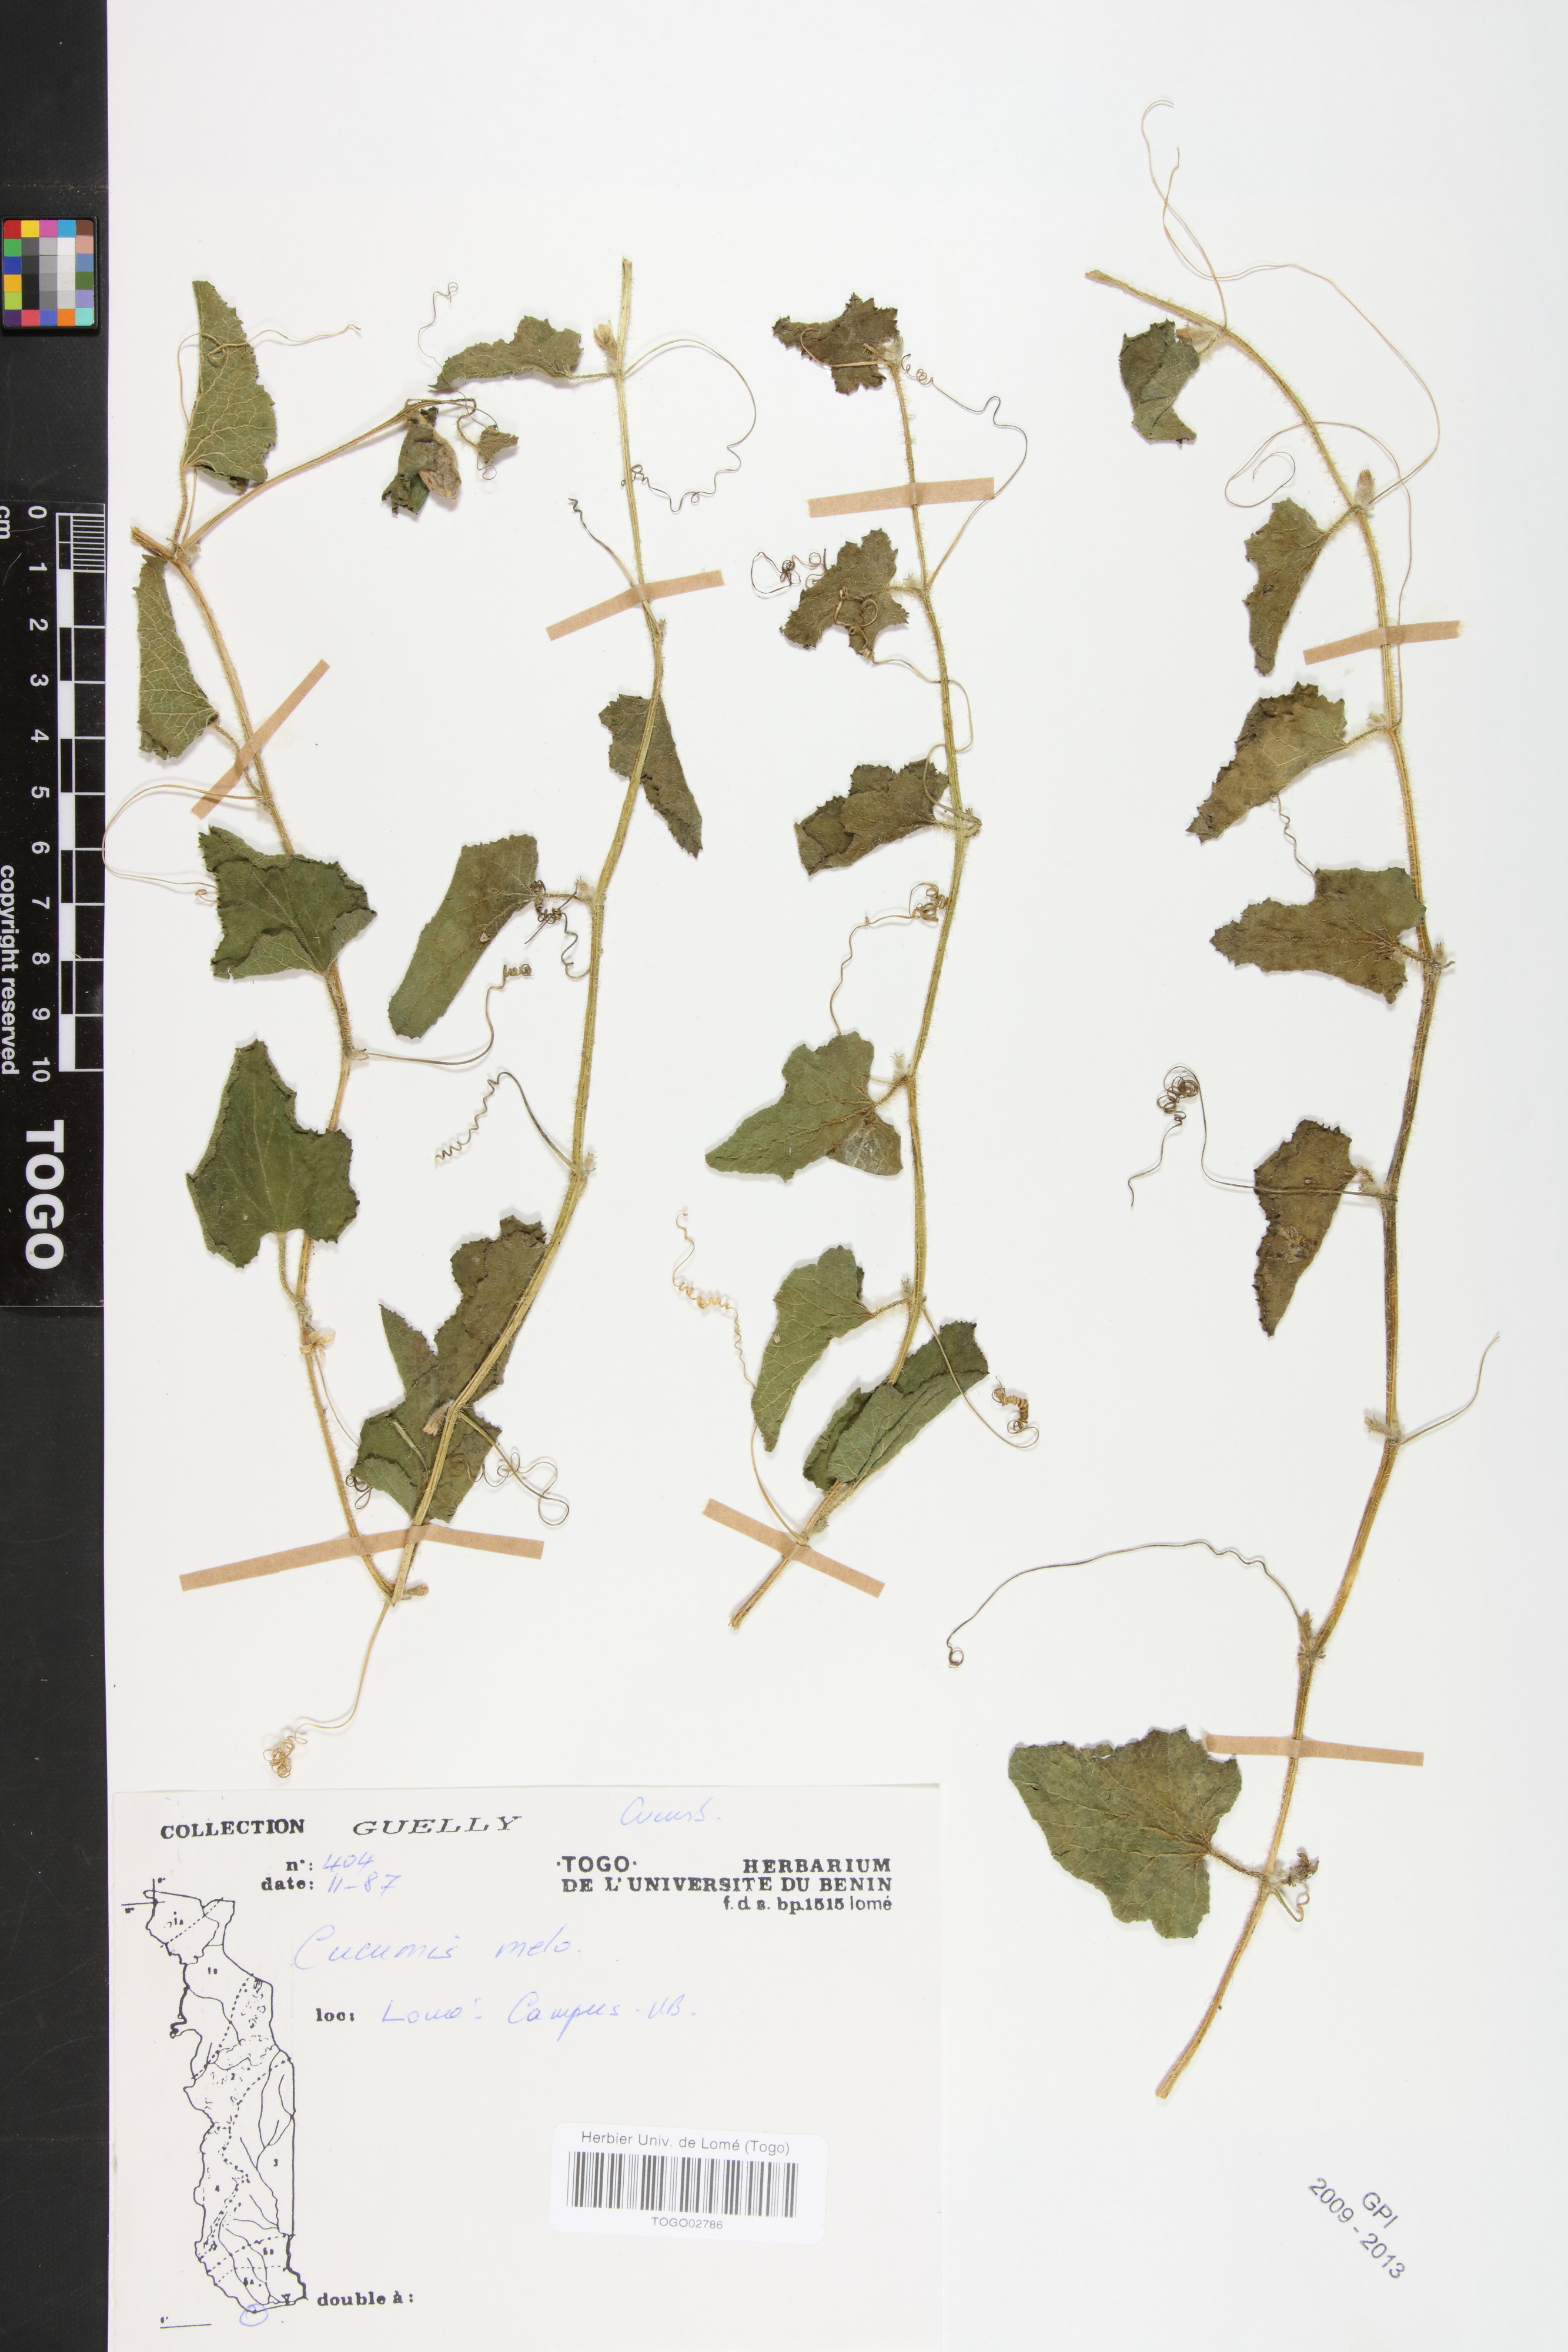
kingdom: Plantae
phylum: Tracheophyta
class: Magnoliopsida
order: Cucurbitales
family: Cucurbitaceae
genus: Cucumis
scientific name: Cucumis melo
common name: Melon
